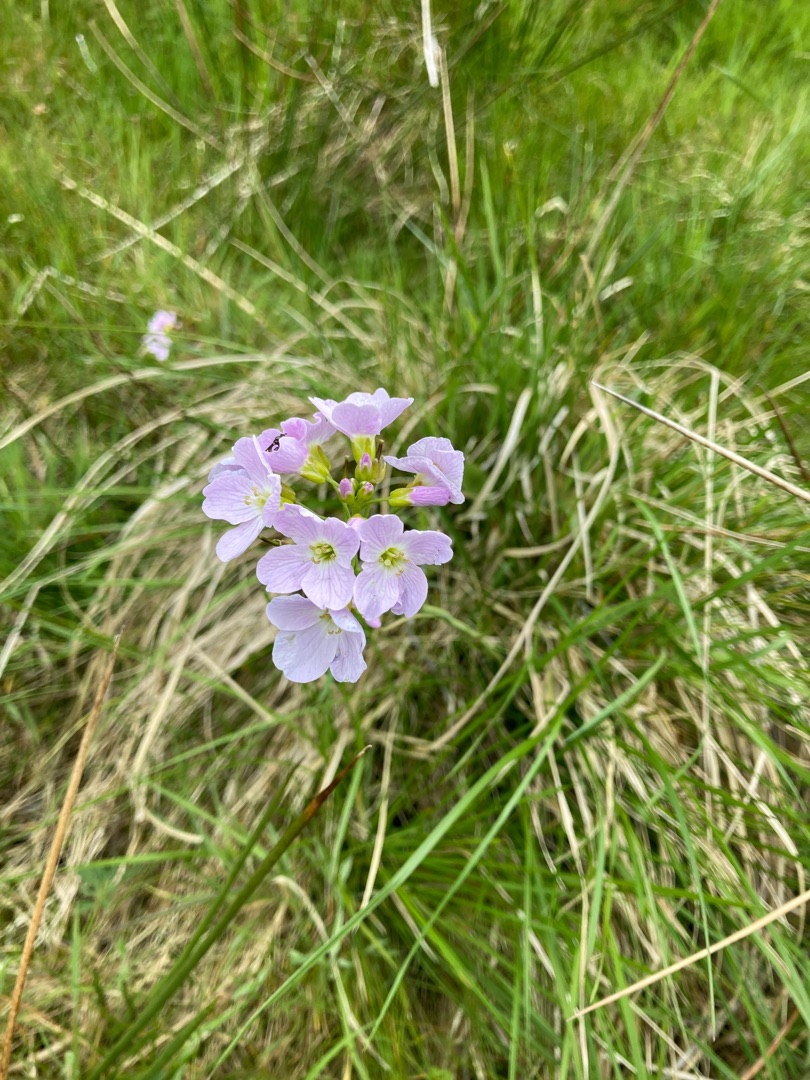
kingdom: Plantae
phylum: Tracheophyta
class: Magnoliopsida
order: Brassicales
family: Brassicaceae
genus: Cardamine
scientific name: Cardamine pratensis
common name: Almindelig engkarse
